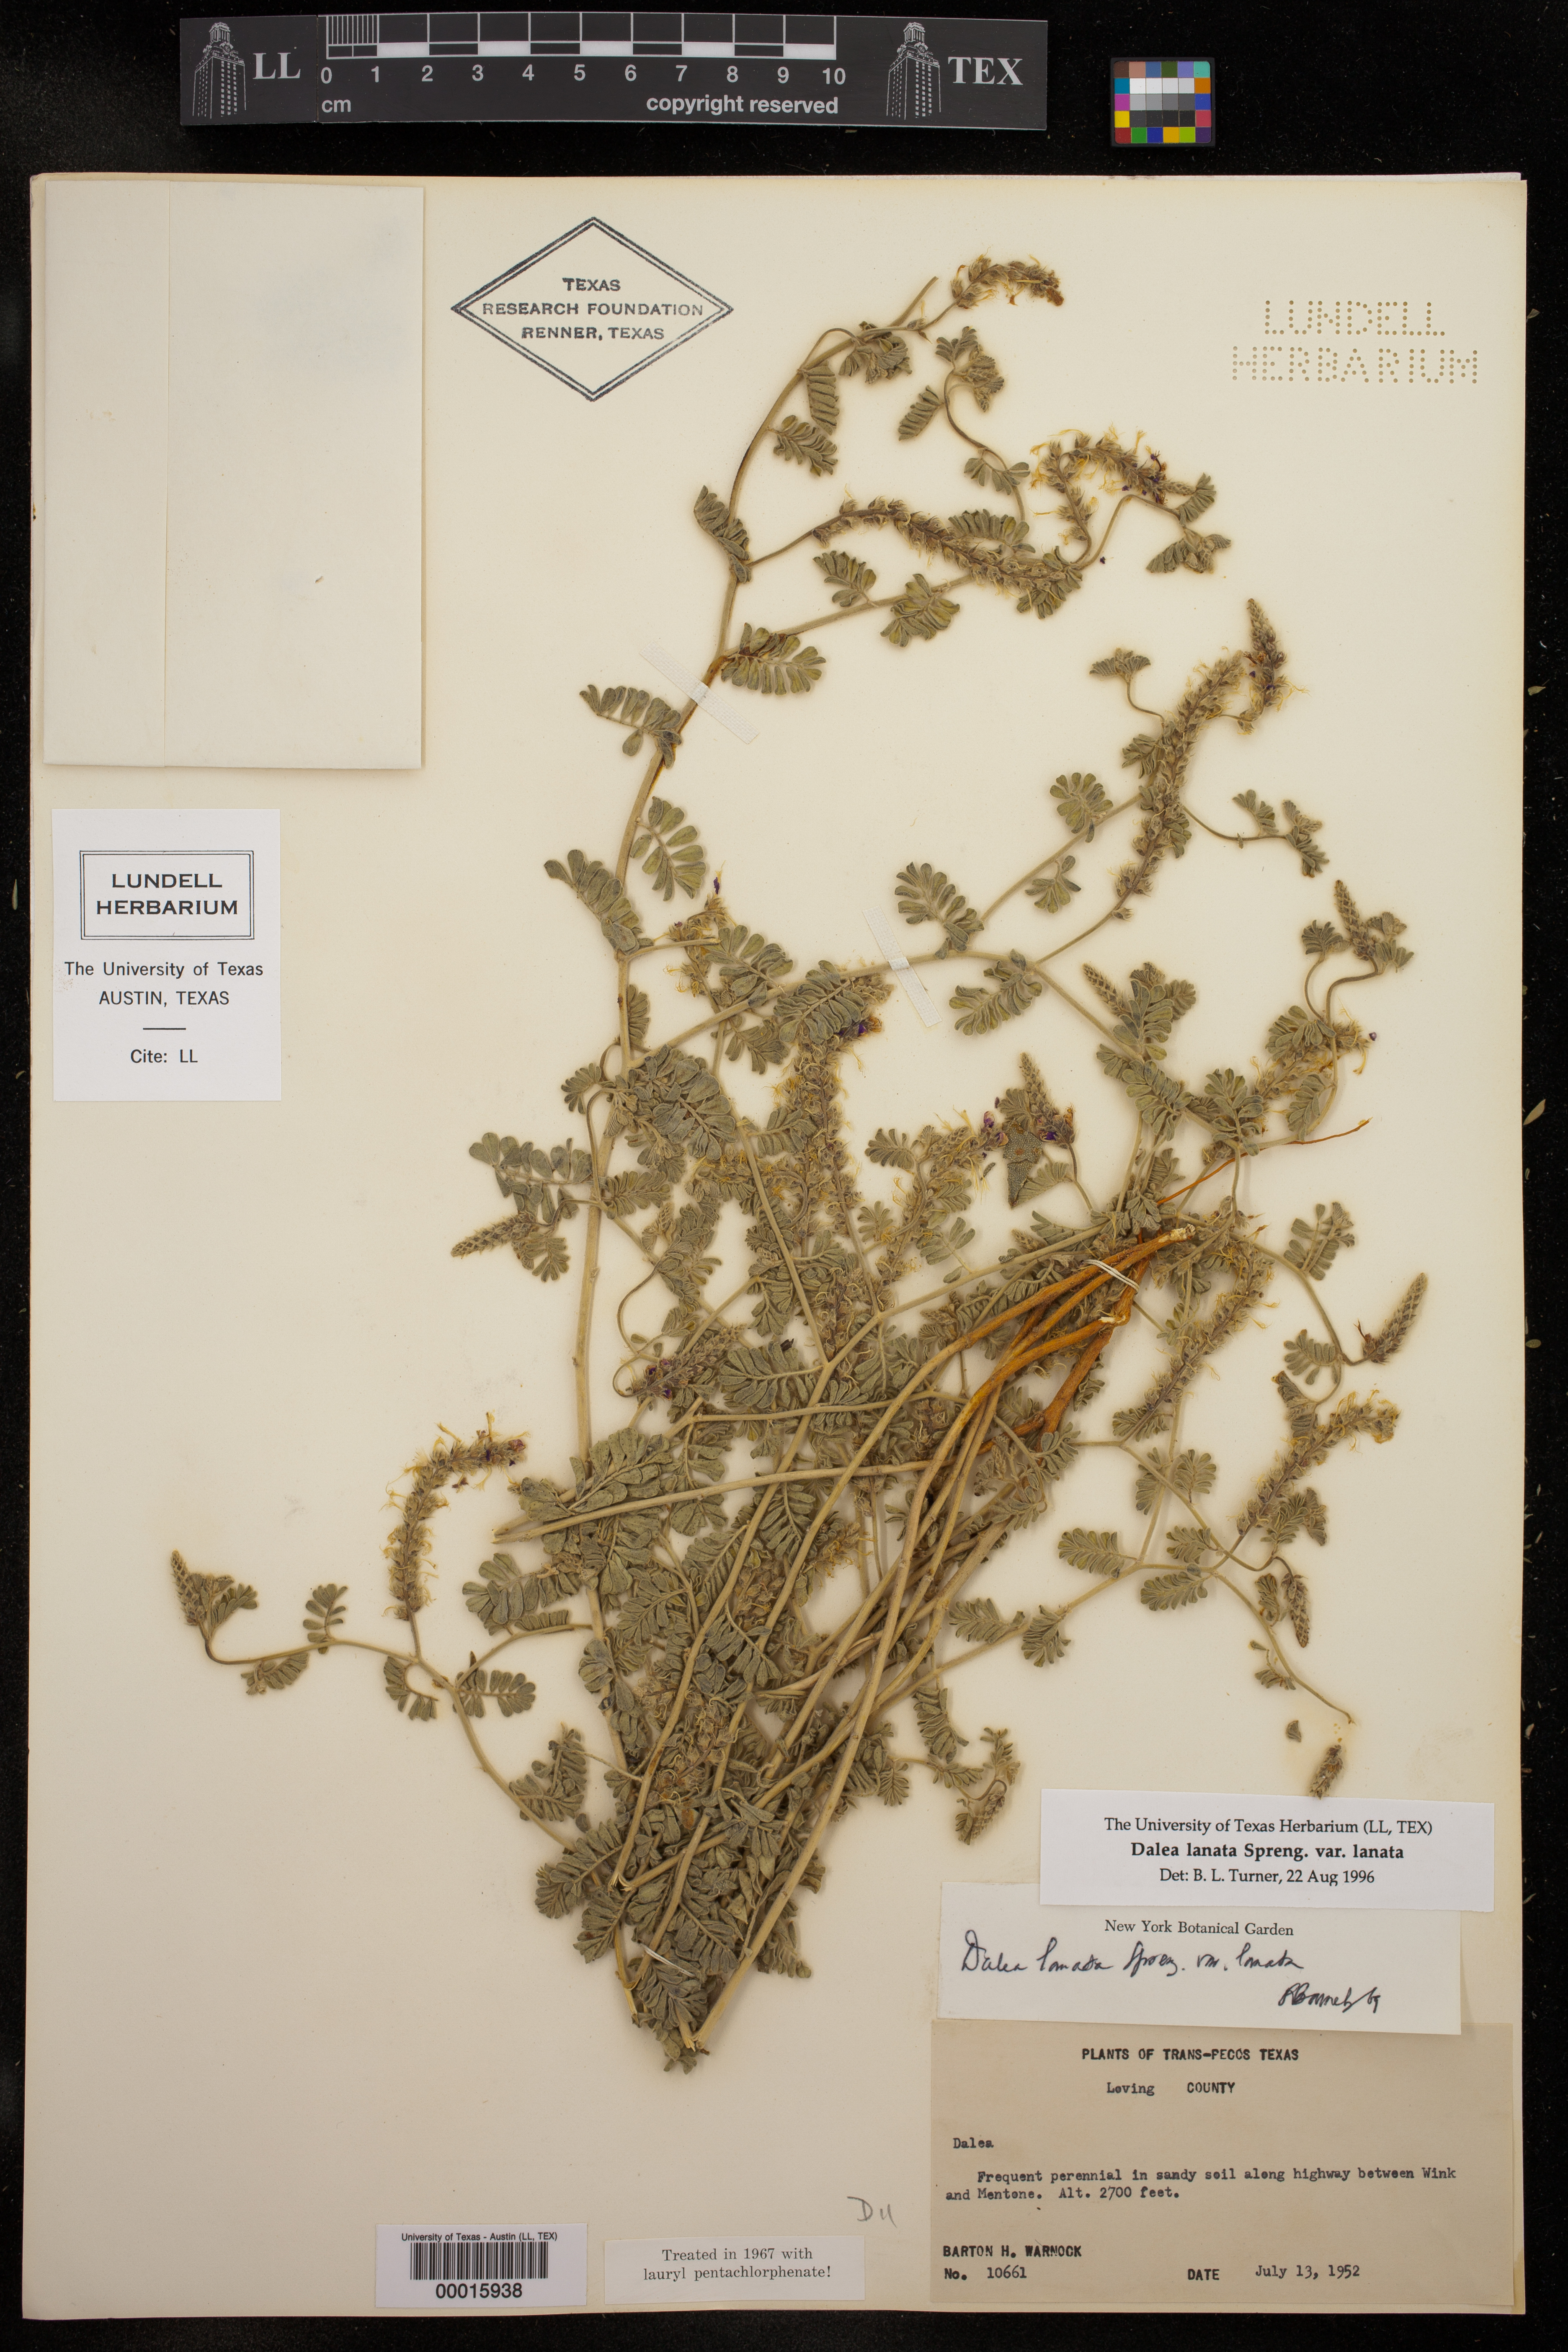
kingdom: Plantae
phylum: Tracheophyta
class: Magnoliopsida
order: Fabales
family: Fabaceae
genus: Dalea
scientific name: Dalea lanata
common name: Woolly dalea
